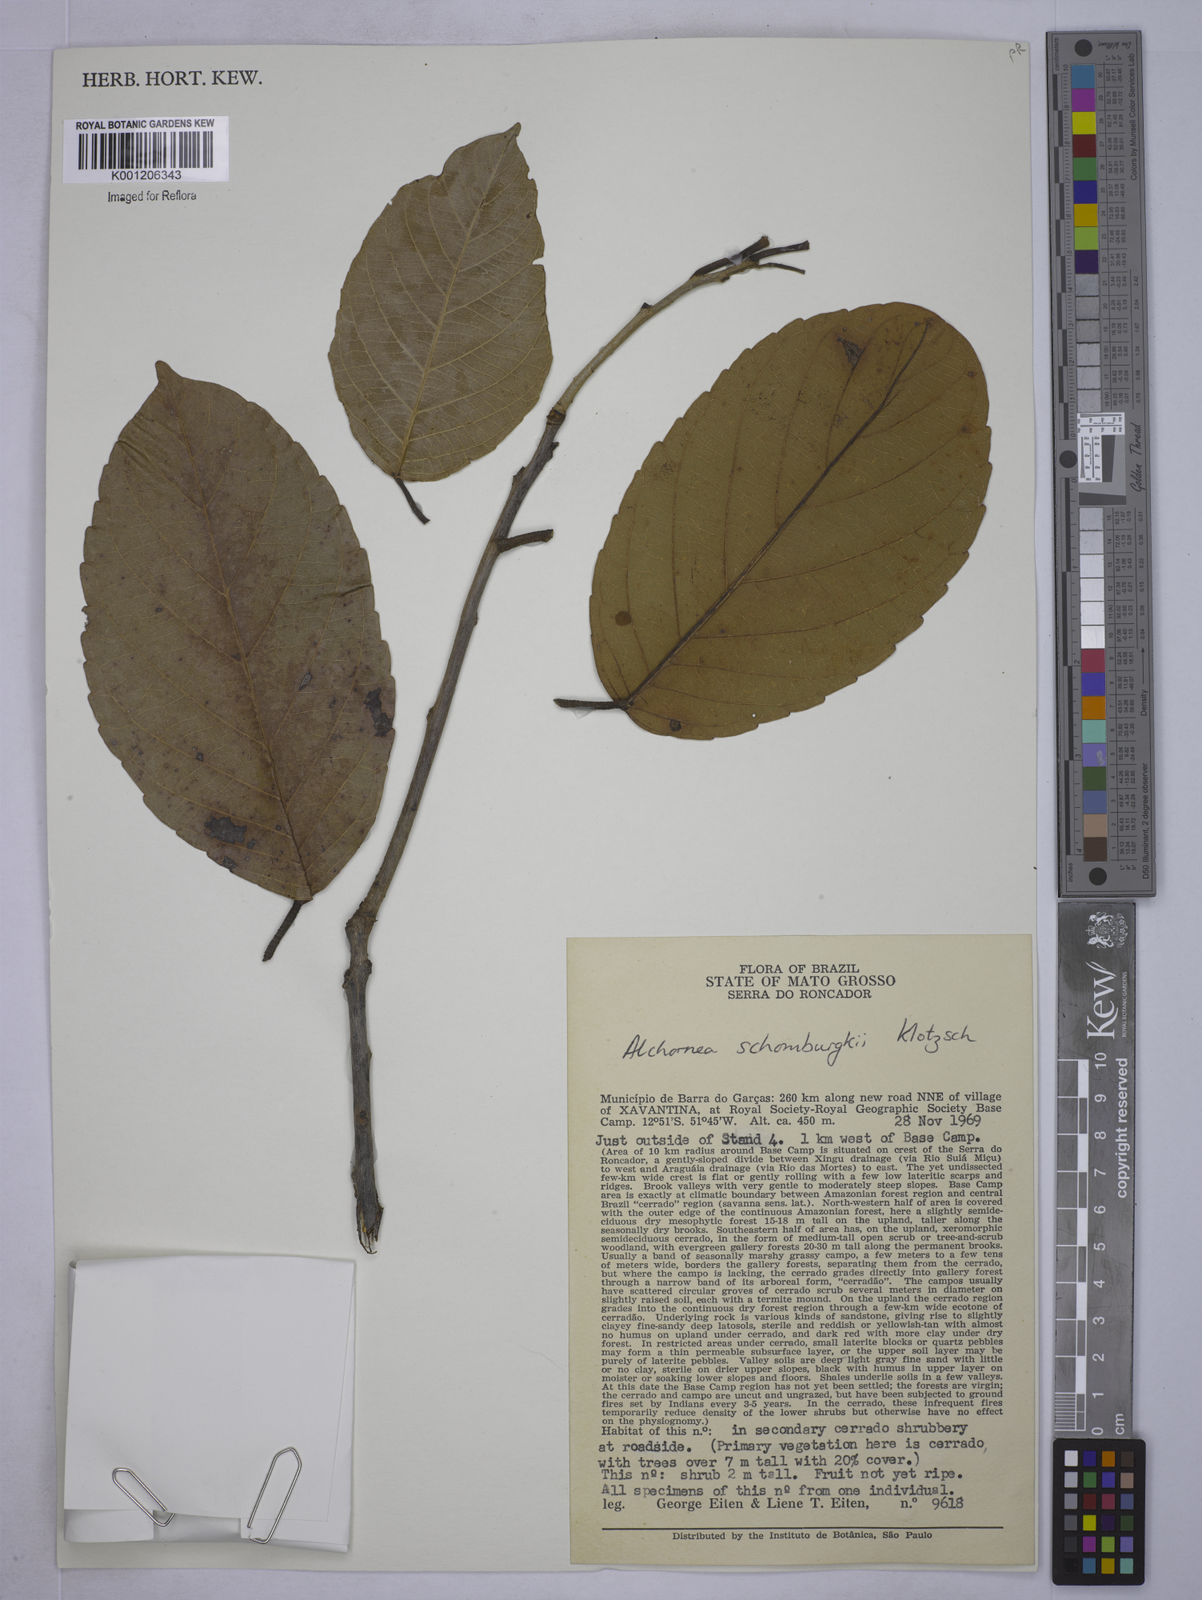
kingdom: Plantae
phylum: Tracheophyta
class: Magnoliopsida
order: Malpighiales
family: Euphorbiaceae
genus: Alchornea
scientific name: Alchornea discolor
